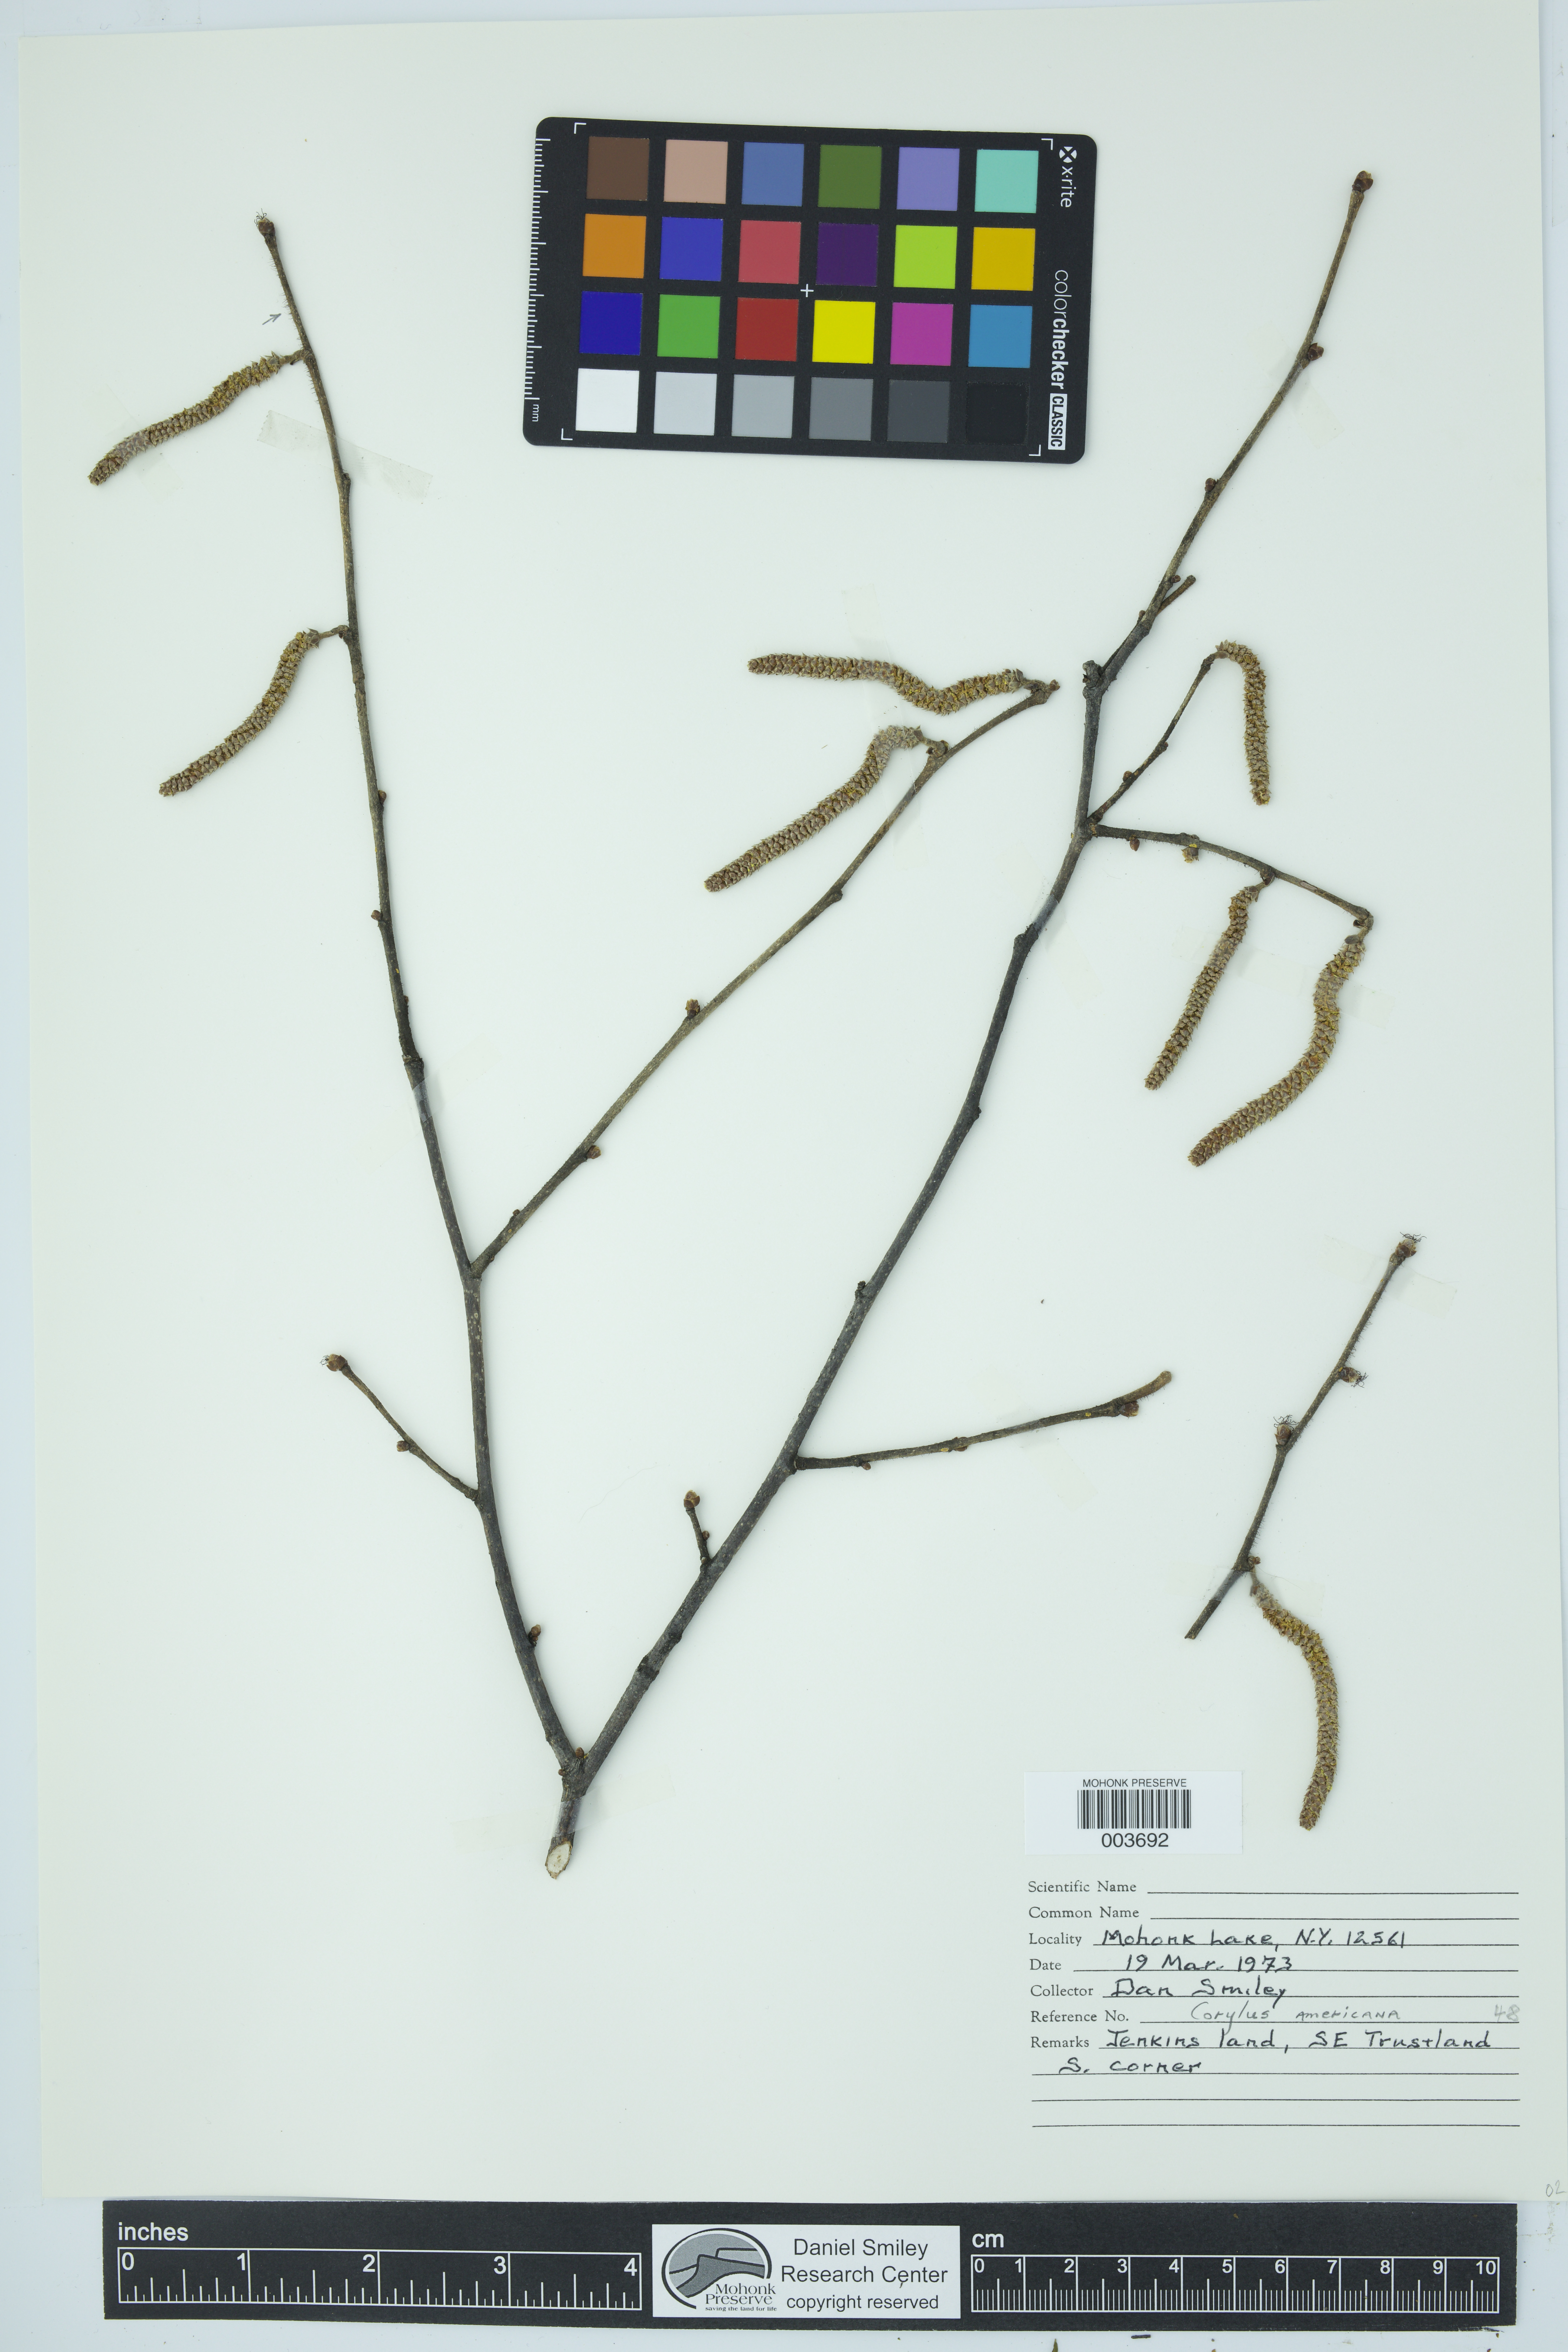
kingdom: Plantae
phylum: Tracheophyta
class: Magnoliopsida
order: Fagales
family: Betulaceae
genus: Corylus
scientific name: Corylus
